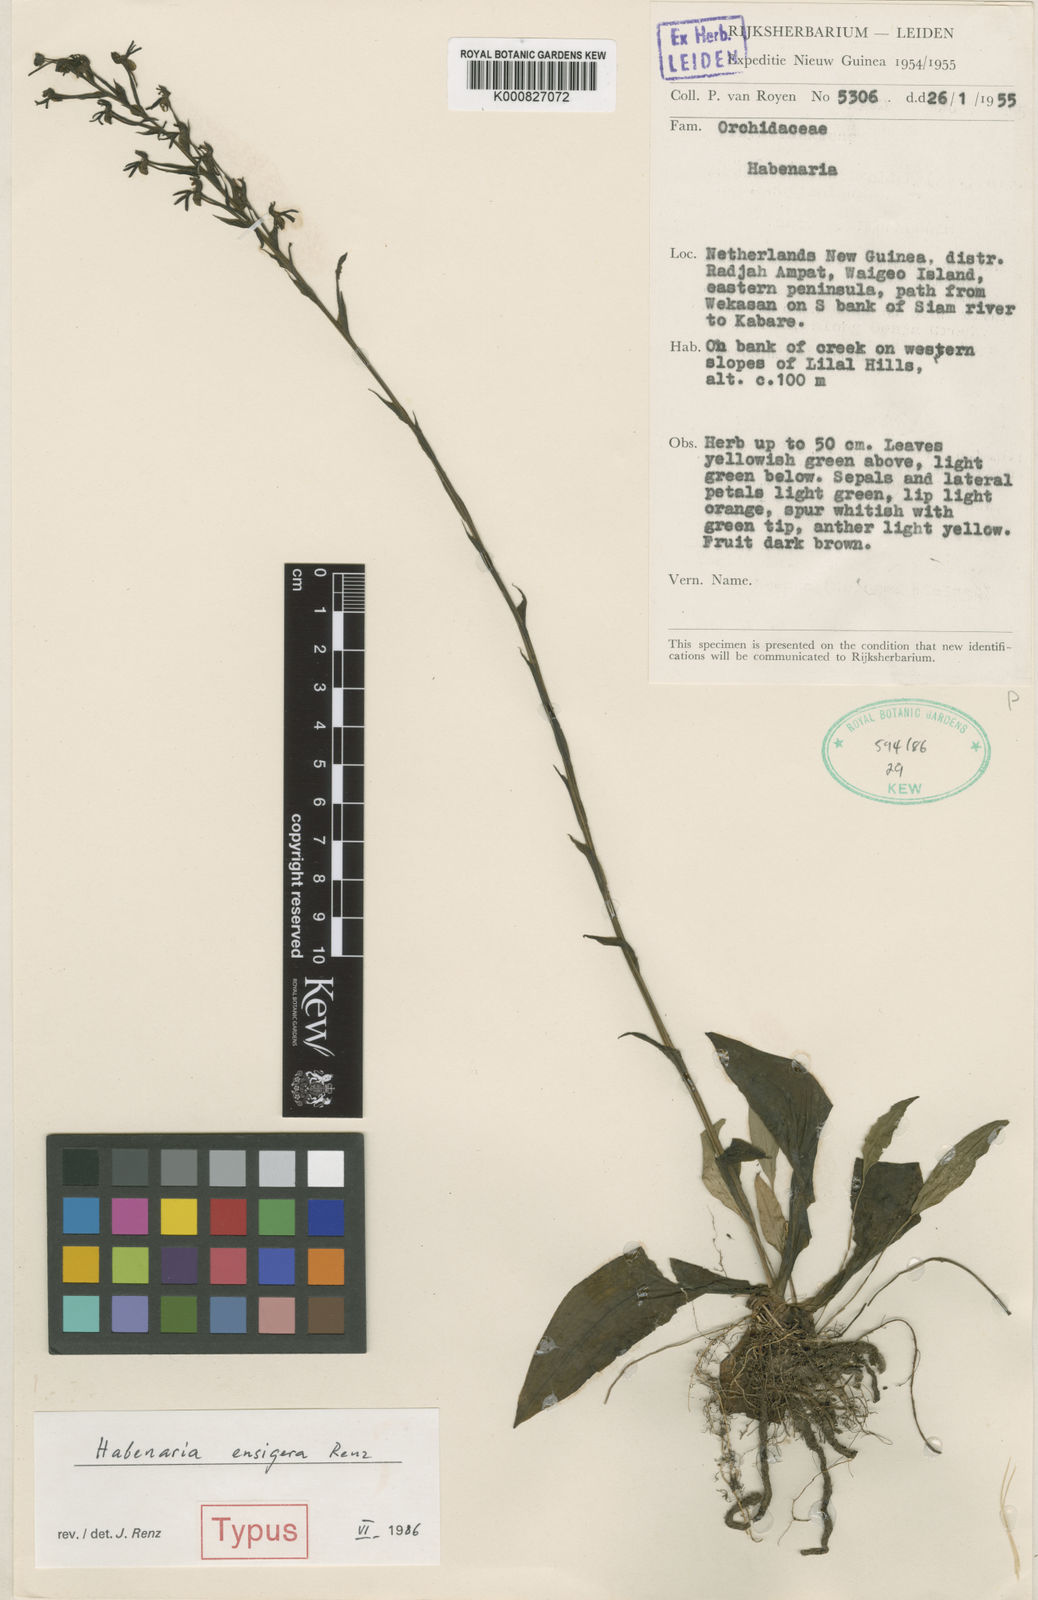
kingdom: Plantae
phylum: Tracheophyta
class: Liliopsida
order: Asparagales
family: Orchidaceae
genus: Habenaria
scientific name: Habenaria ensigera
